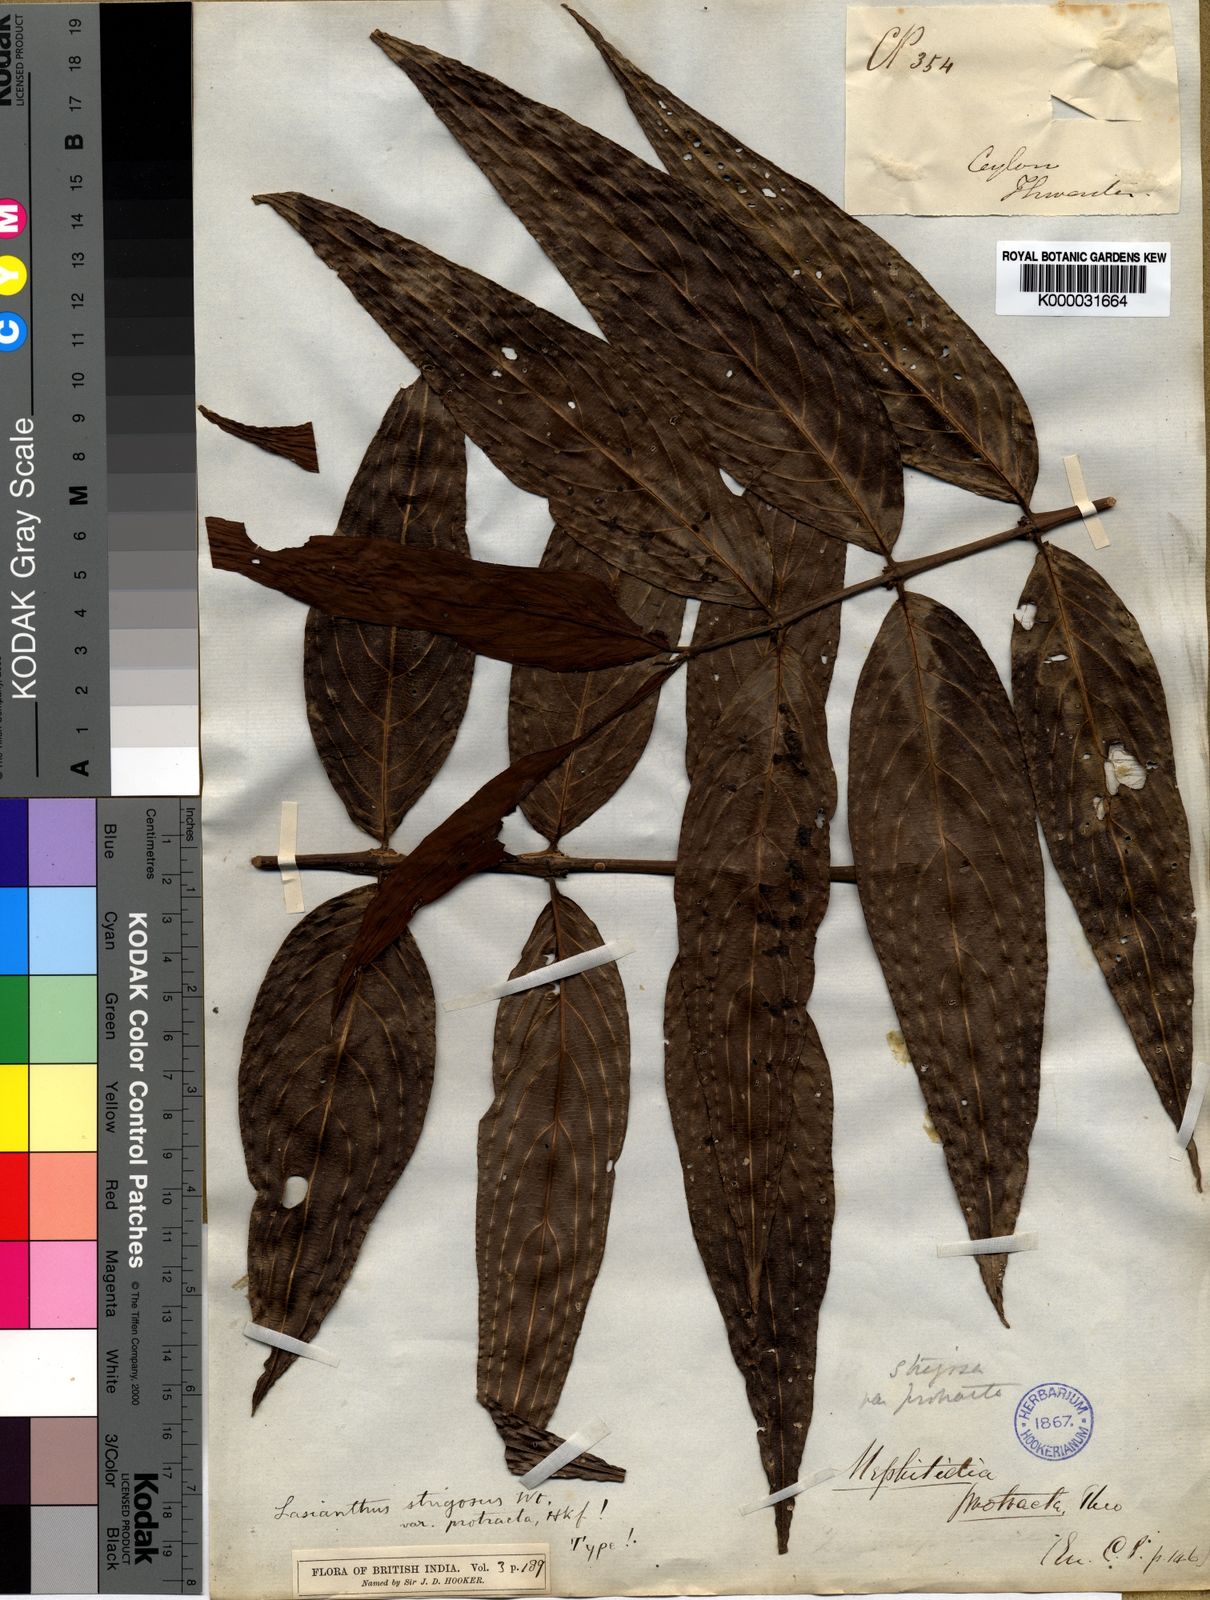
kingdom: Plantae
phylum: Tracheophyta
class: Magnoliopsida
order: Gentianales
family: Rubiaceae
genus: Lasianthus
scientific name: Lasianthus strigosus
